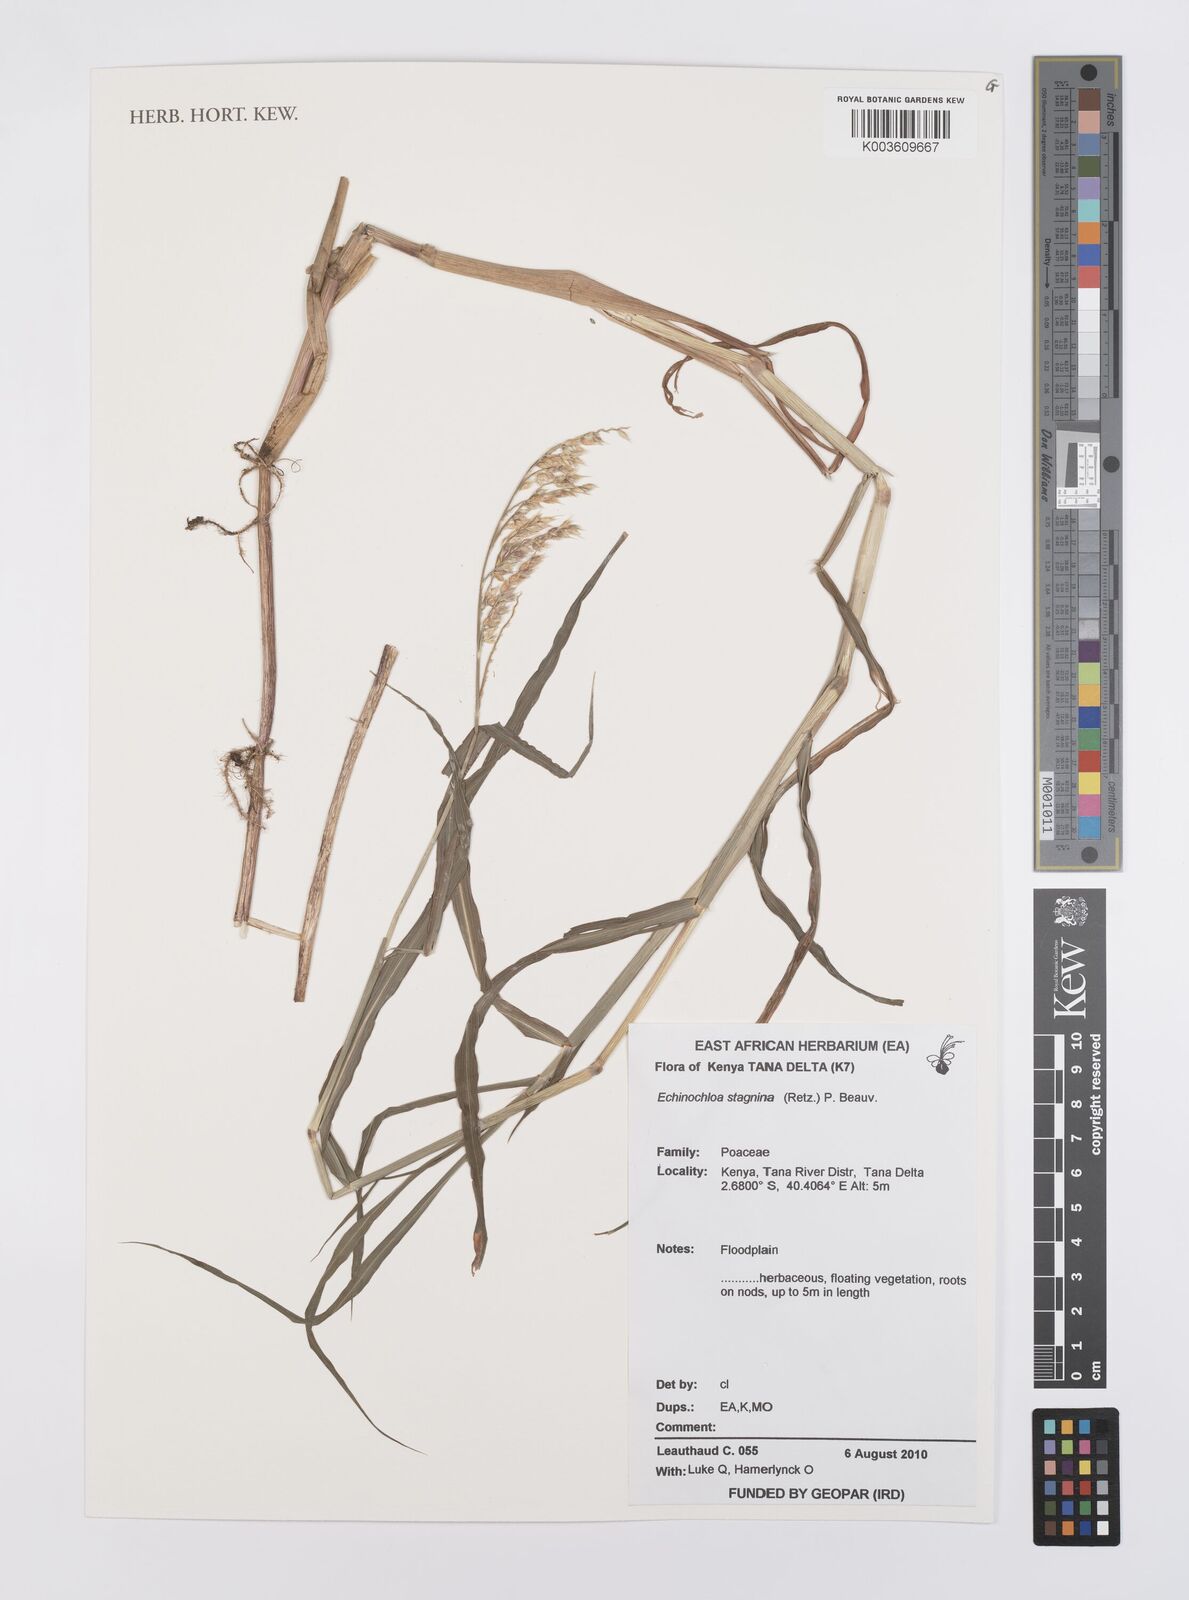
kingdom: Plantae
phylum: Tracheophyta
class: Liliopsida
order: Poales
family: Poaceae
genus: Echinochloa
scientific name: Echinochloa stagnina
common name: Burgu grass
